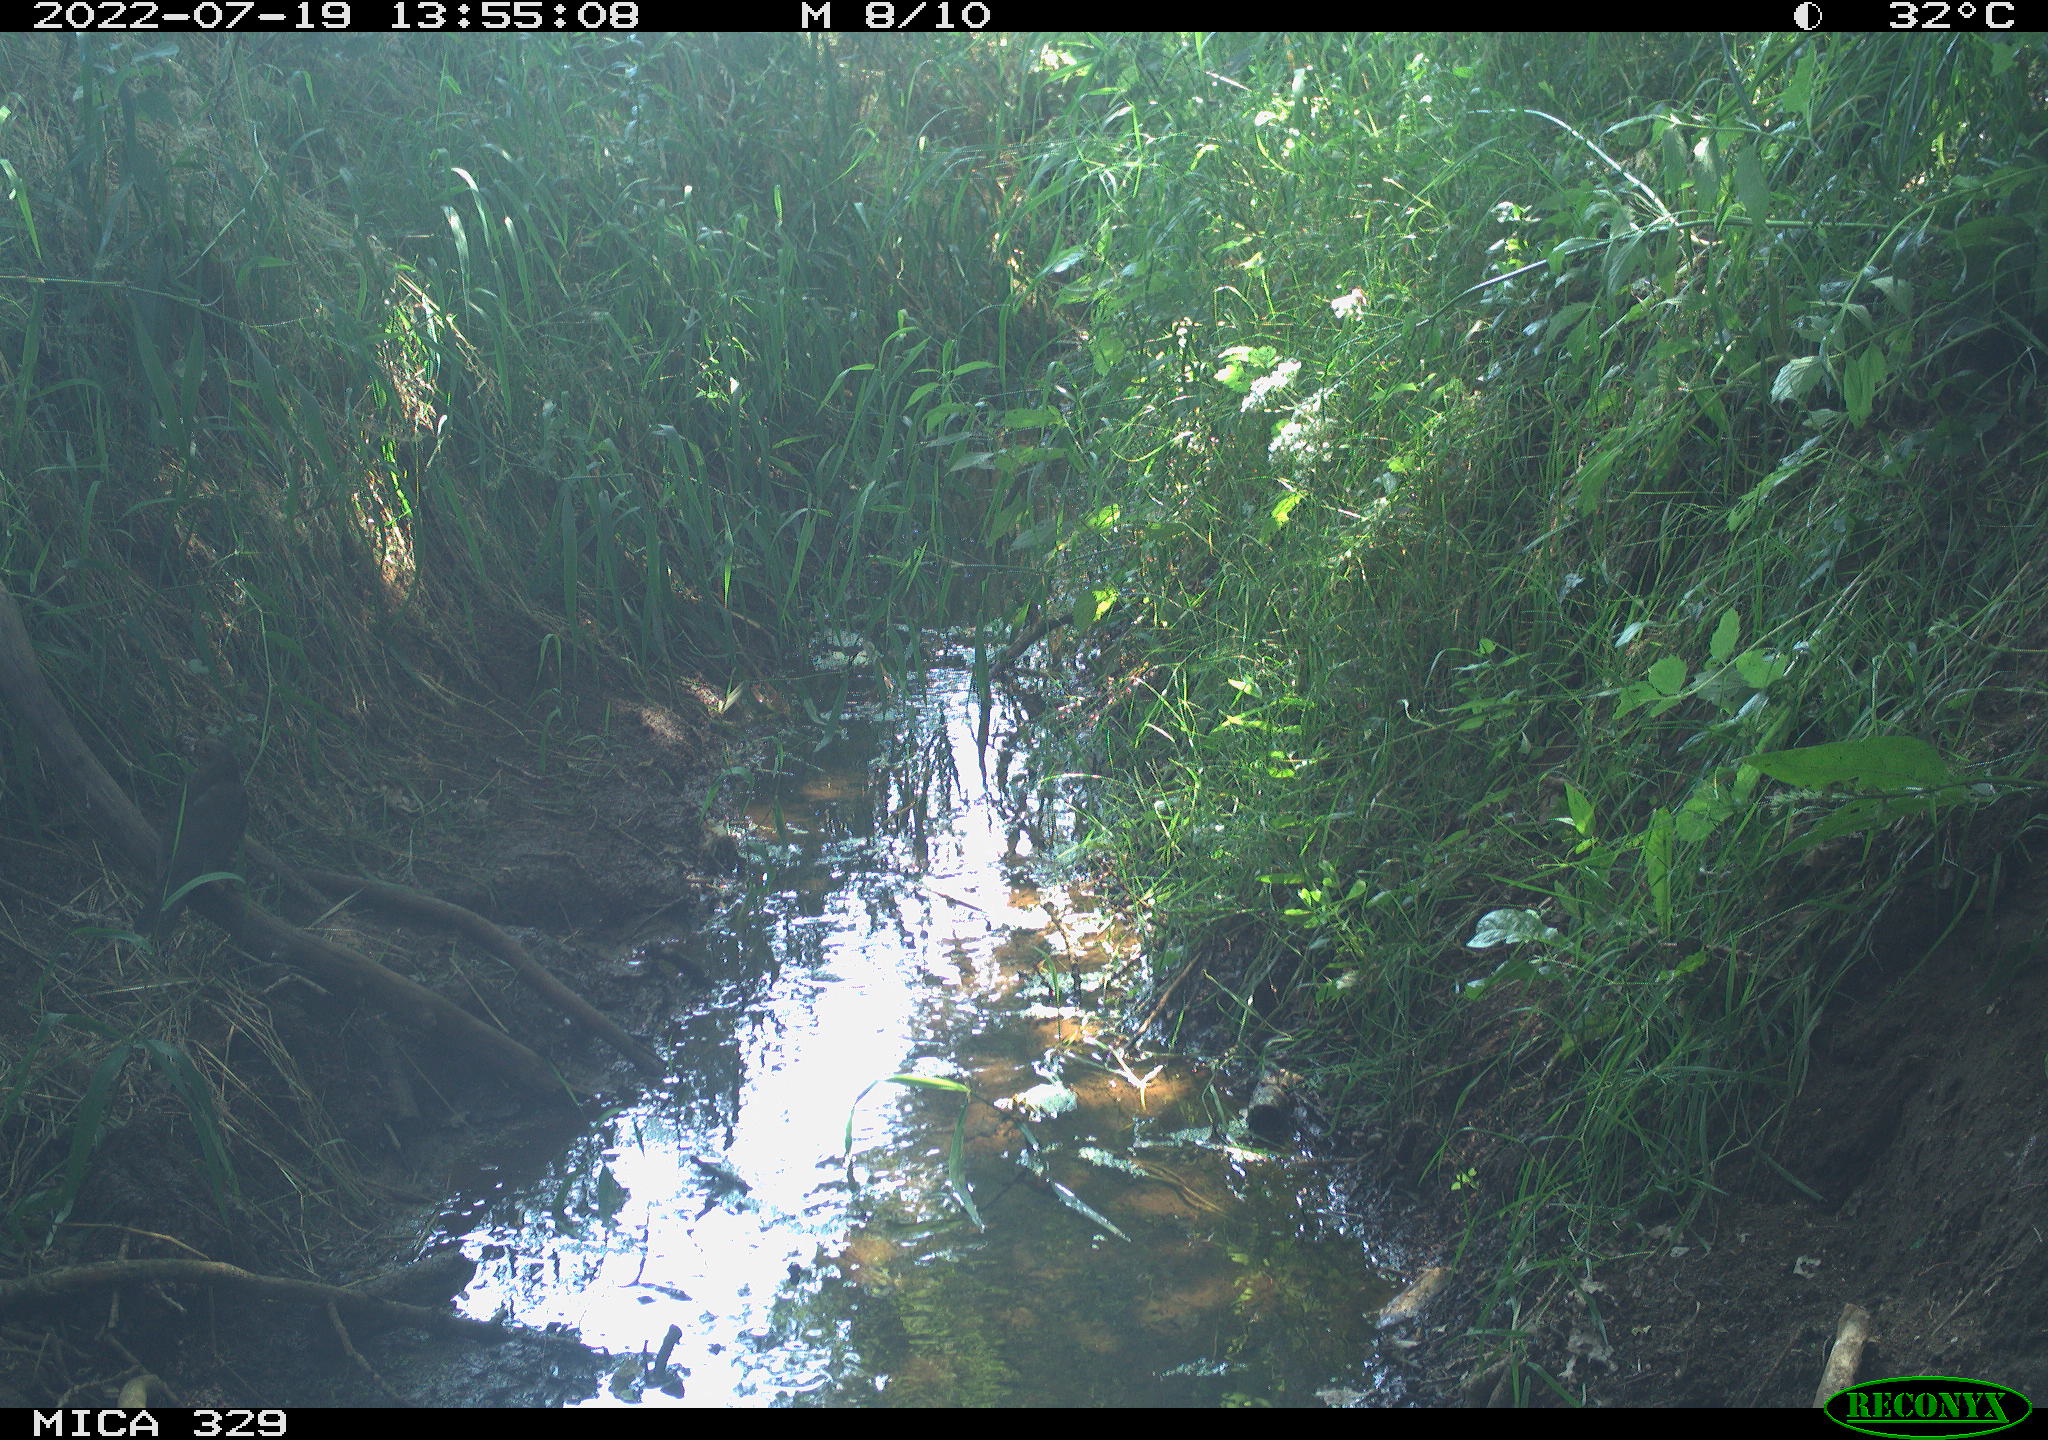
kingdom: Animalia
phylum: Chordata
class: Aves
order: Passeriformes
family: Turdidae
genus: Turdus
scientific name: Turdus merula
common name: Common blackbird
